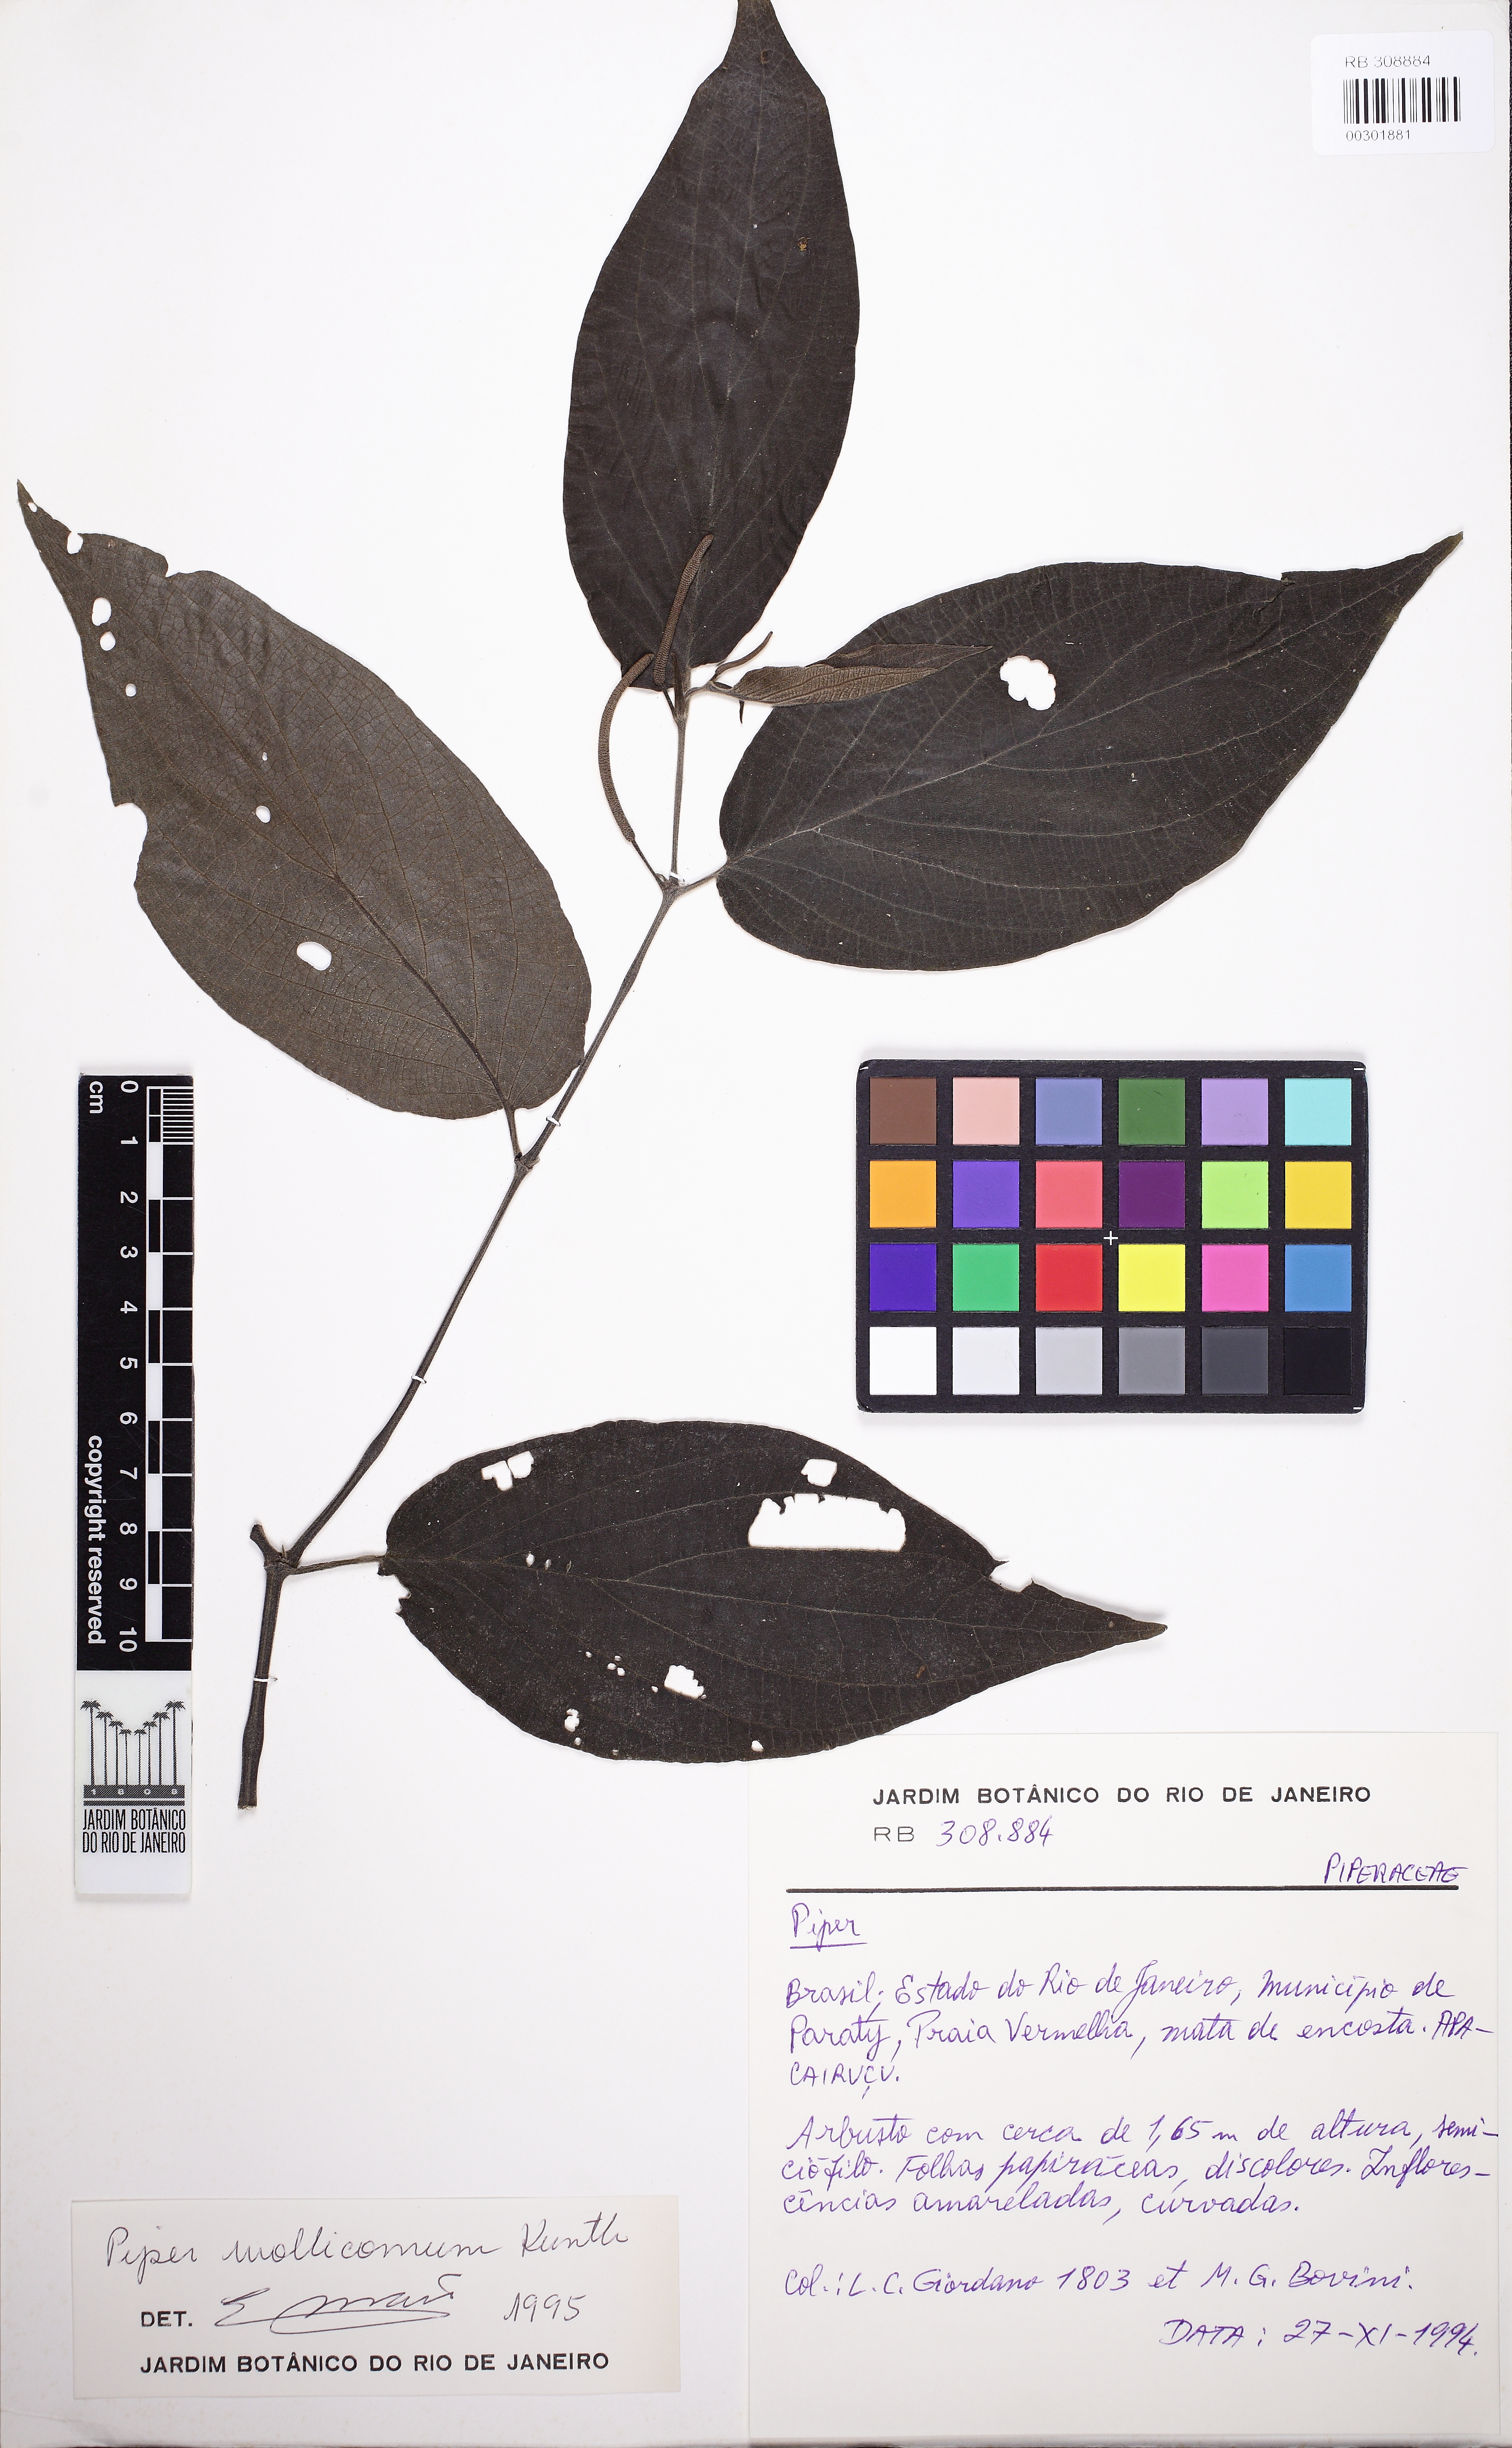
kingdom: Plantae
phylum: Tracheophyta
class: Magnoliopsida
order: Piperales
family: Piperaceae
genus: Piper
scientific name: Piper mollicomum
